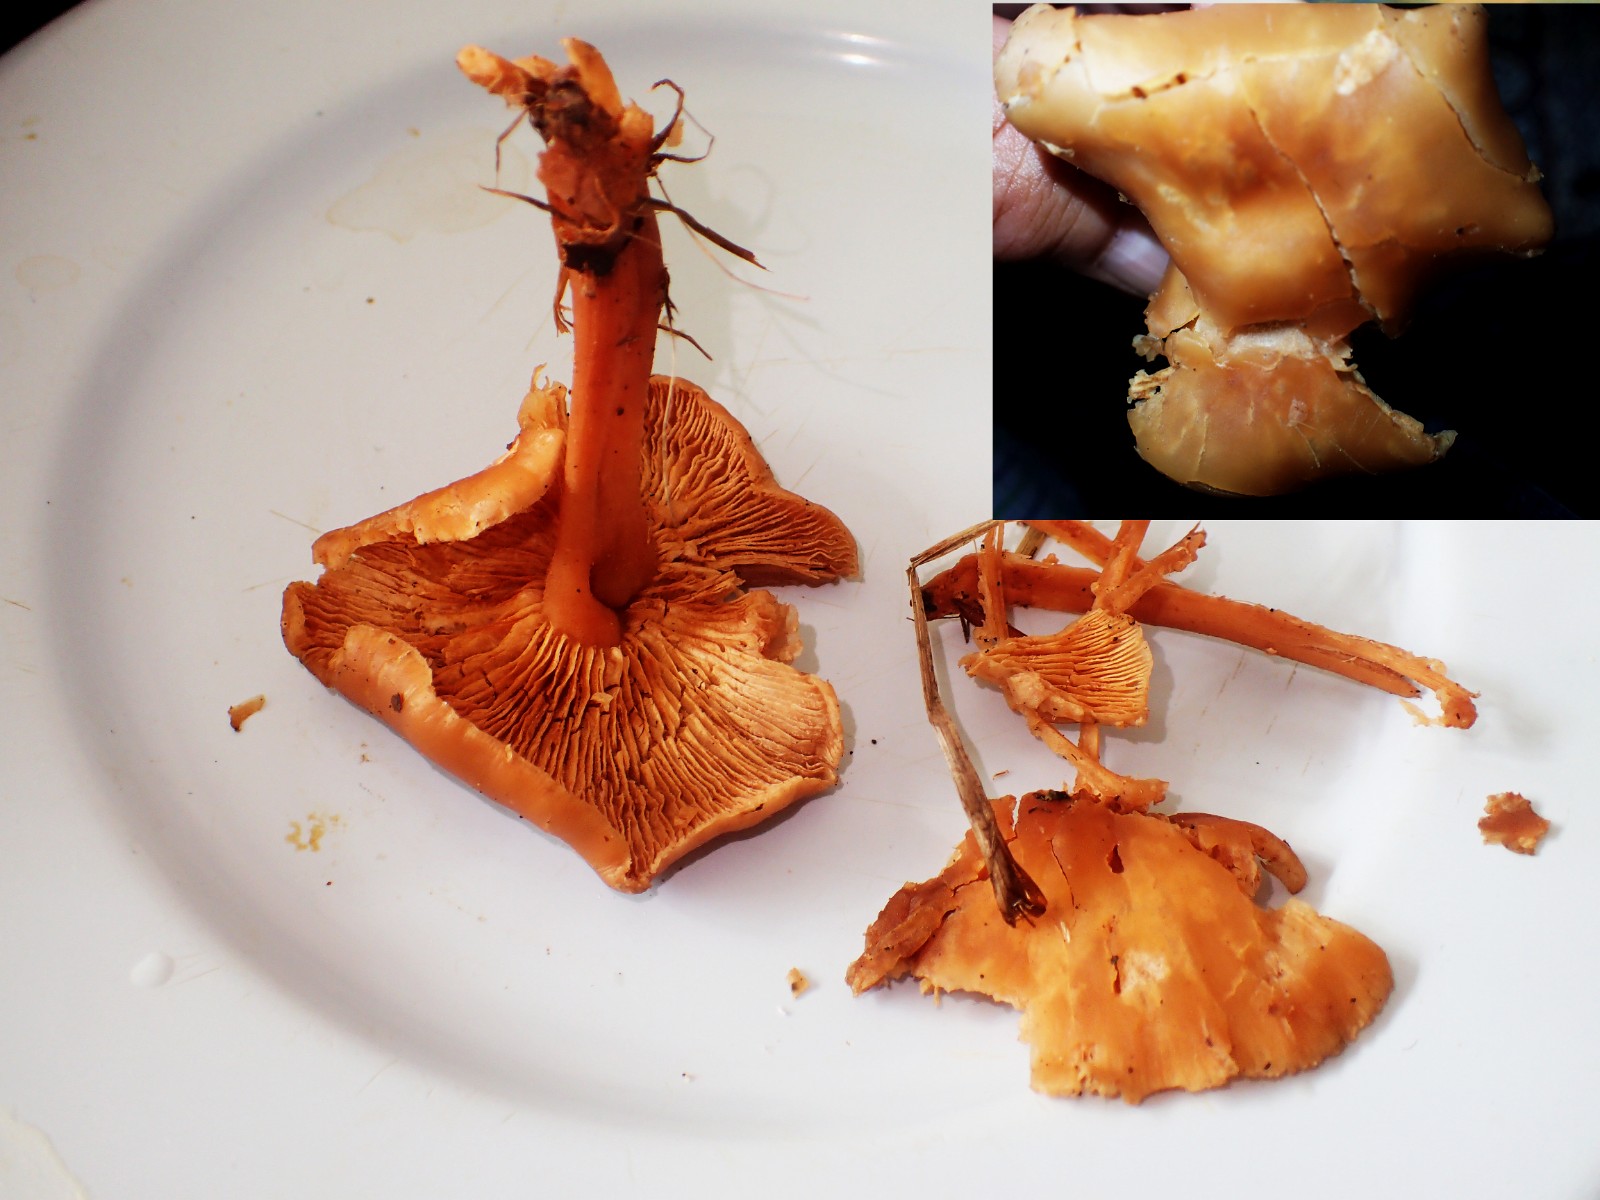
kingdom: Fungi
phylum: Basidiomycota
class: Agaricomycetes
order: Agaricales
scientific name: Agaricales
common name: champignonordenen
